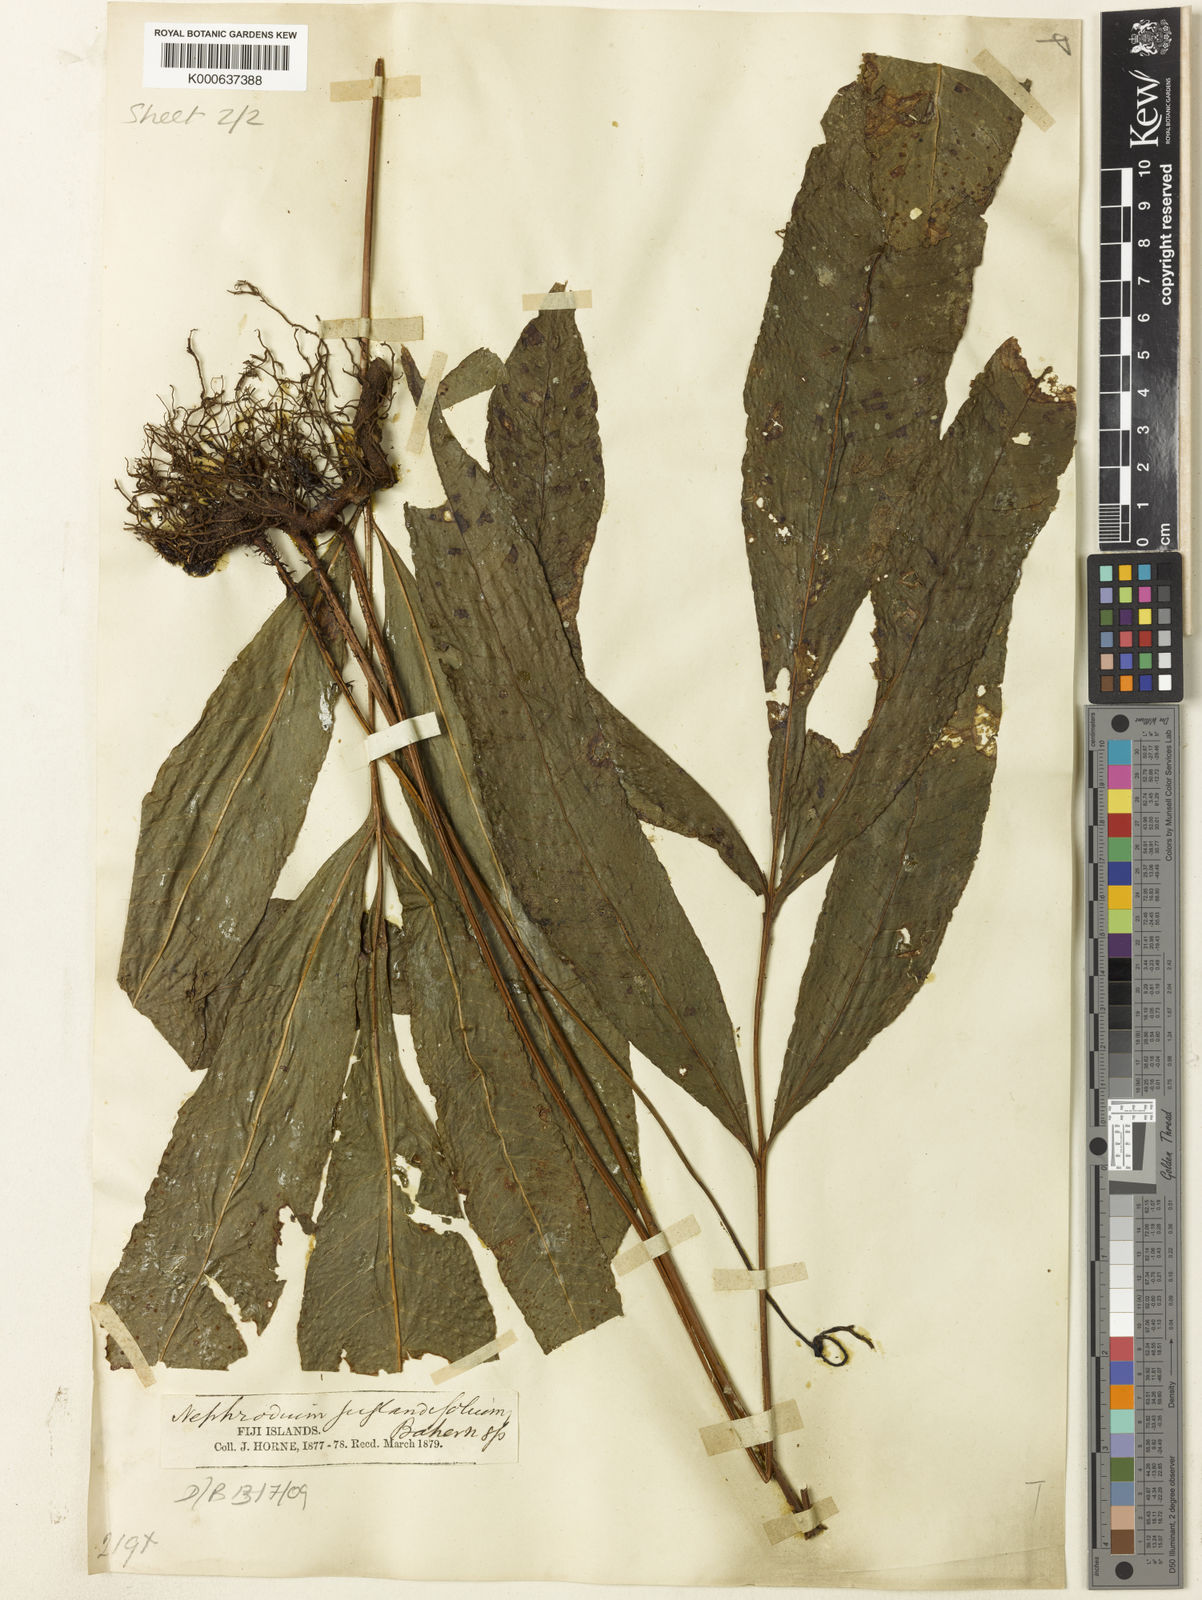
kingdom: Plantae
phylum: Tracheophyta
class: Polypodiopsida
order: Polypodiales
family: Tectariaceae
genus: Polydictyum
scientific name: Polydictyum menyanthidis
